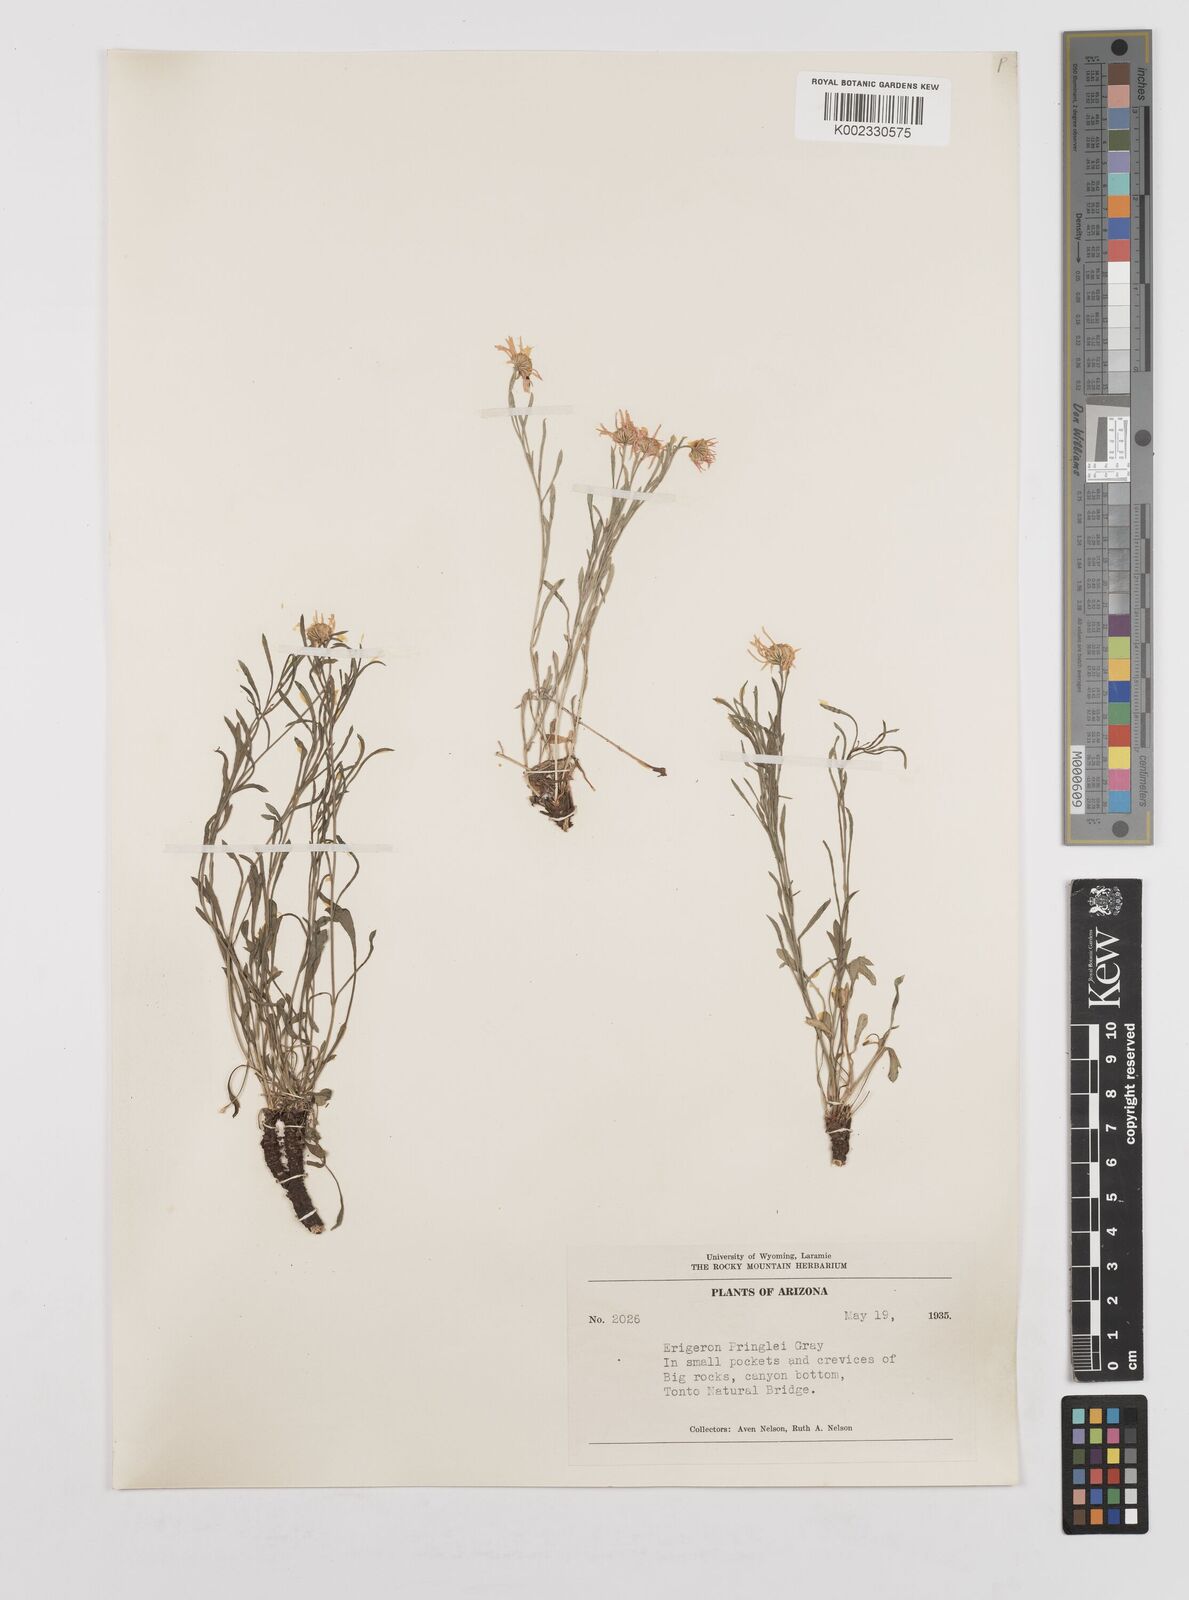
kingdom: Plantae
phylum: Tracheophyta
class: Magnoliopsida
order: Asterales
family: Asteraceae
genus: Erigeron
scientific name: Erigeron pringlei
